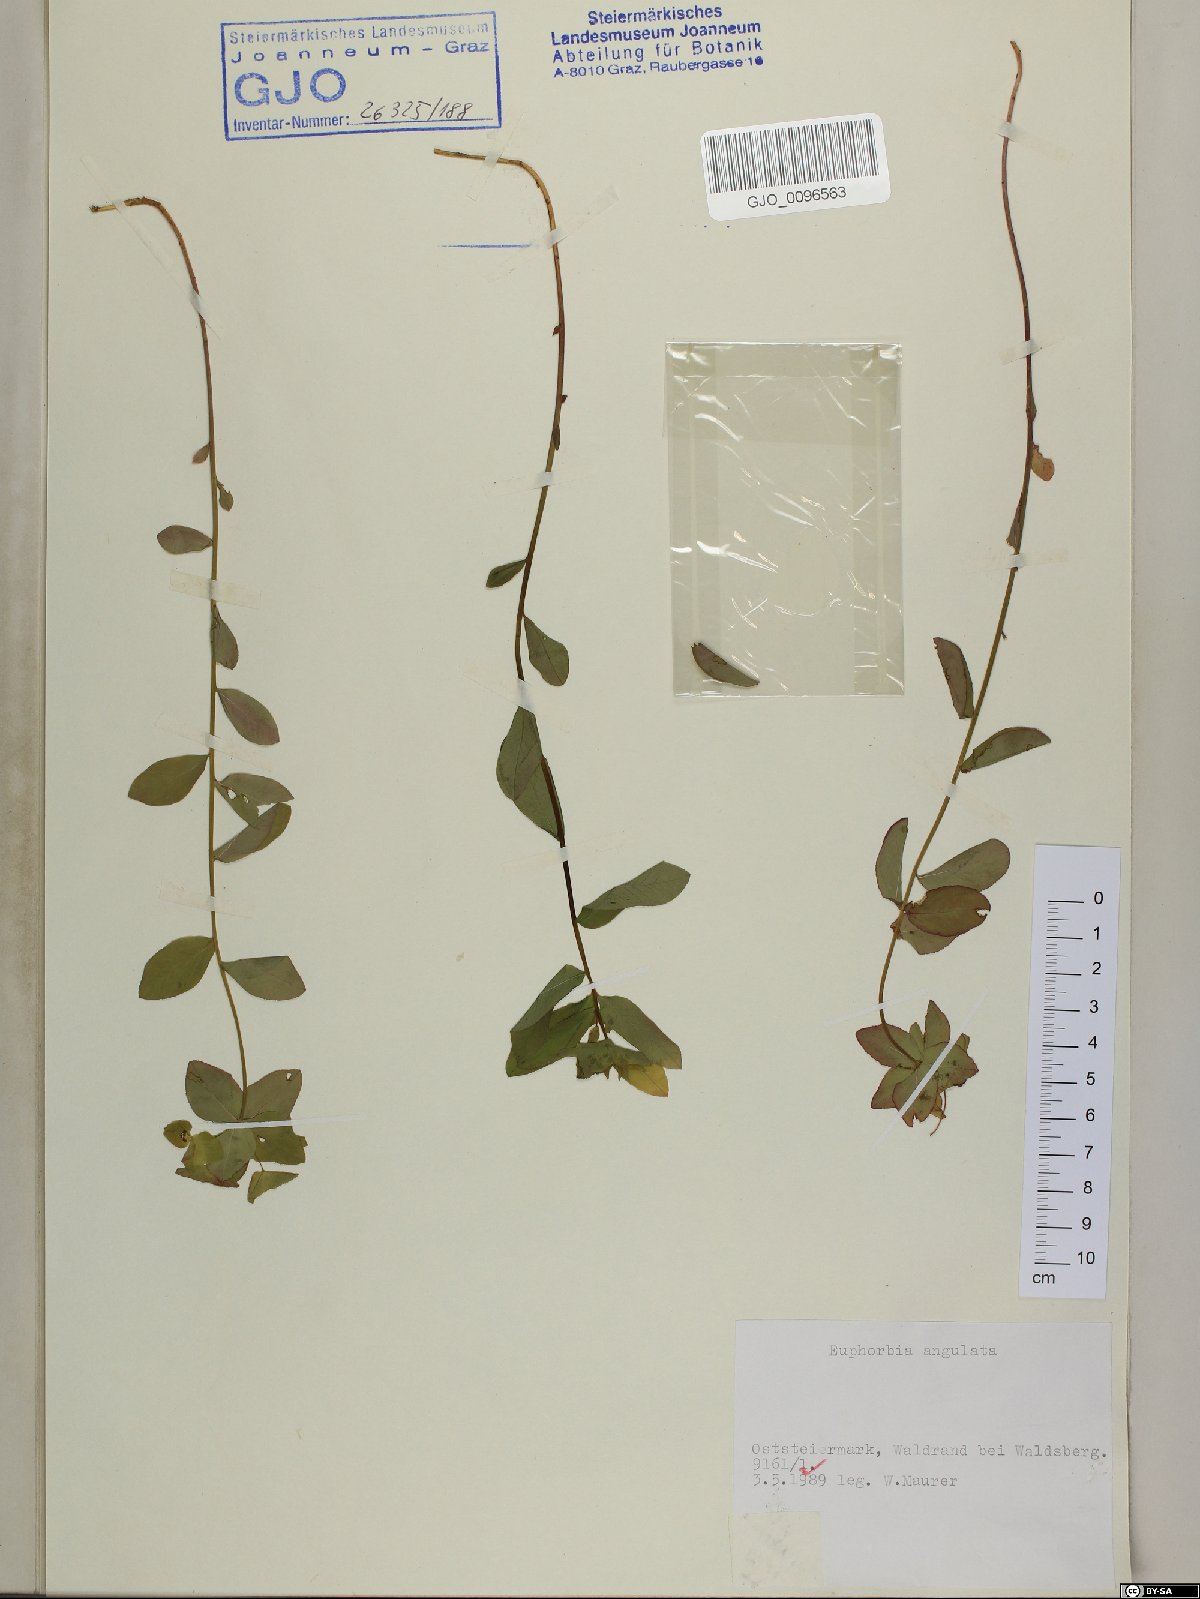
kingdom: Plantae
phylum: Tracheophyta
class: Magnoliopsida
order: Malpighiales
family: Euphorbiaceae
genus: Euphorbia
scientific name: Euphorbia angulata
